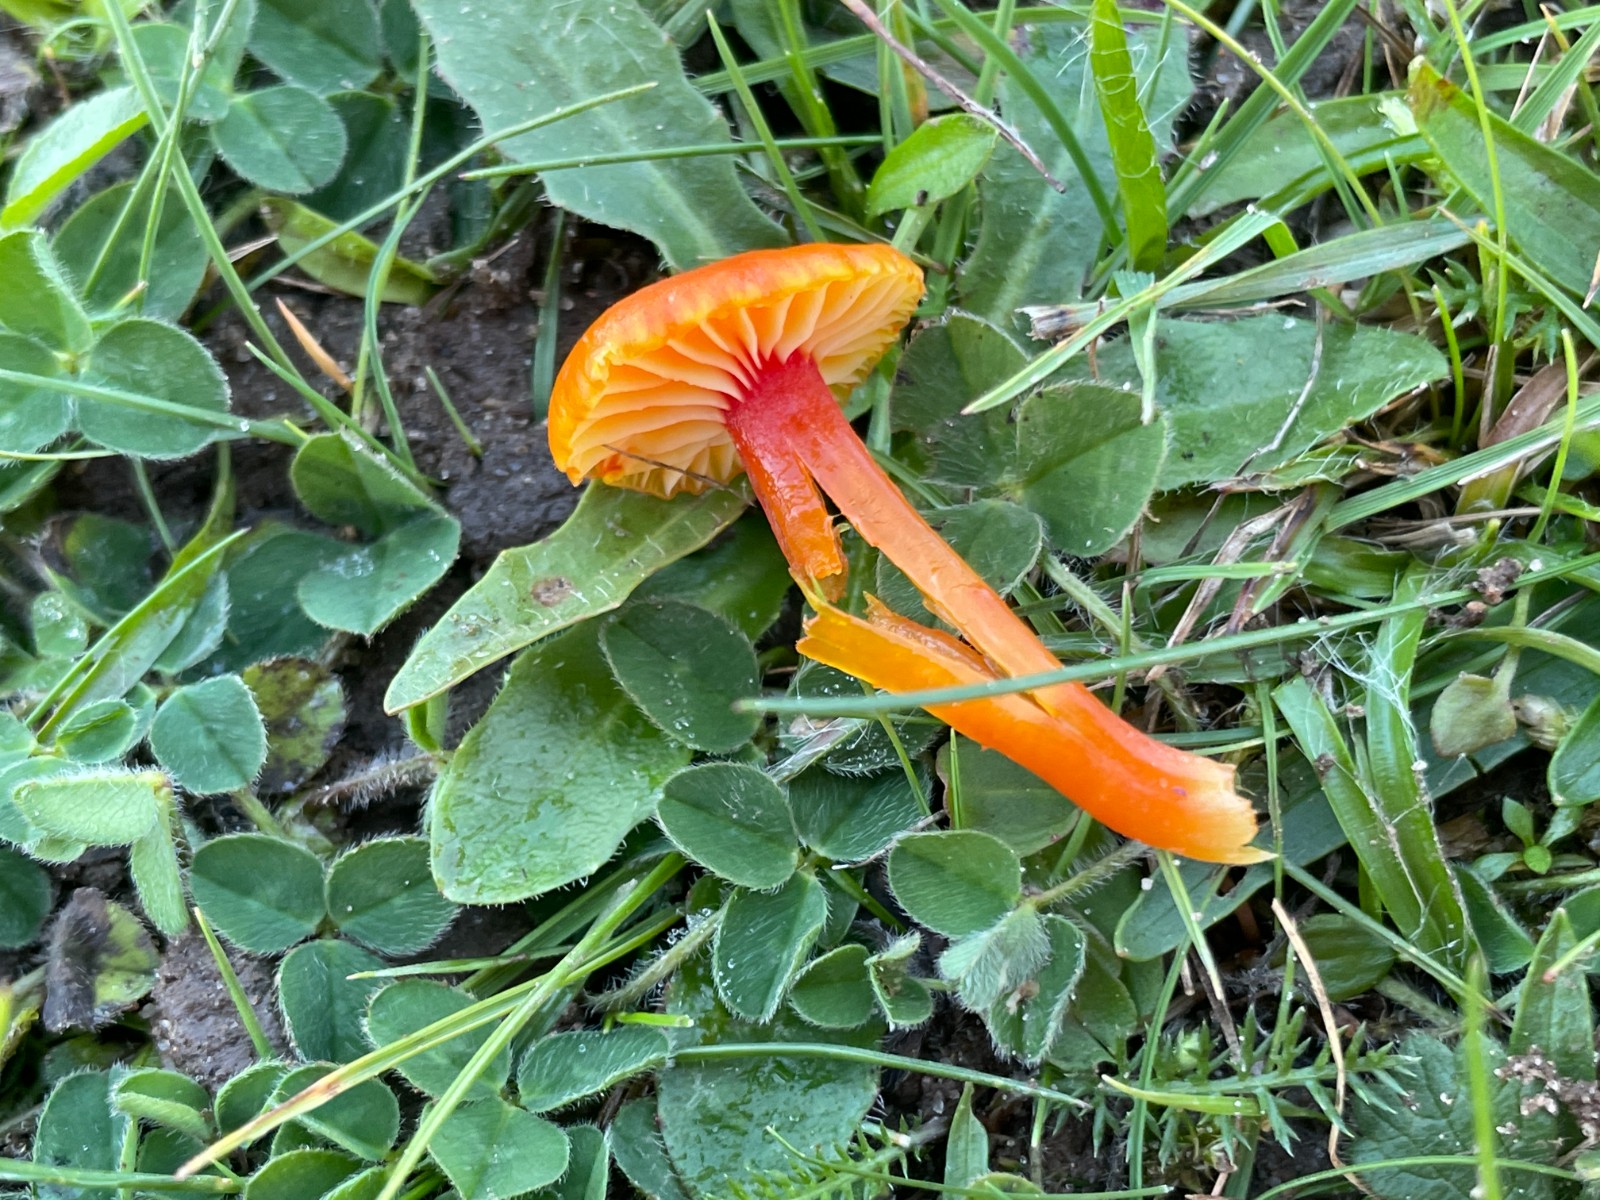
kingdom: Fungi
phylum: Basidiomycota
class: Agaricomycetes
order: Agaricales
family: Hygrophoraceae
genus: Hygrocybe
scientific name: Hygrocybe insipida
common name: liden vokshat
